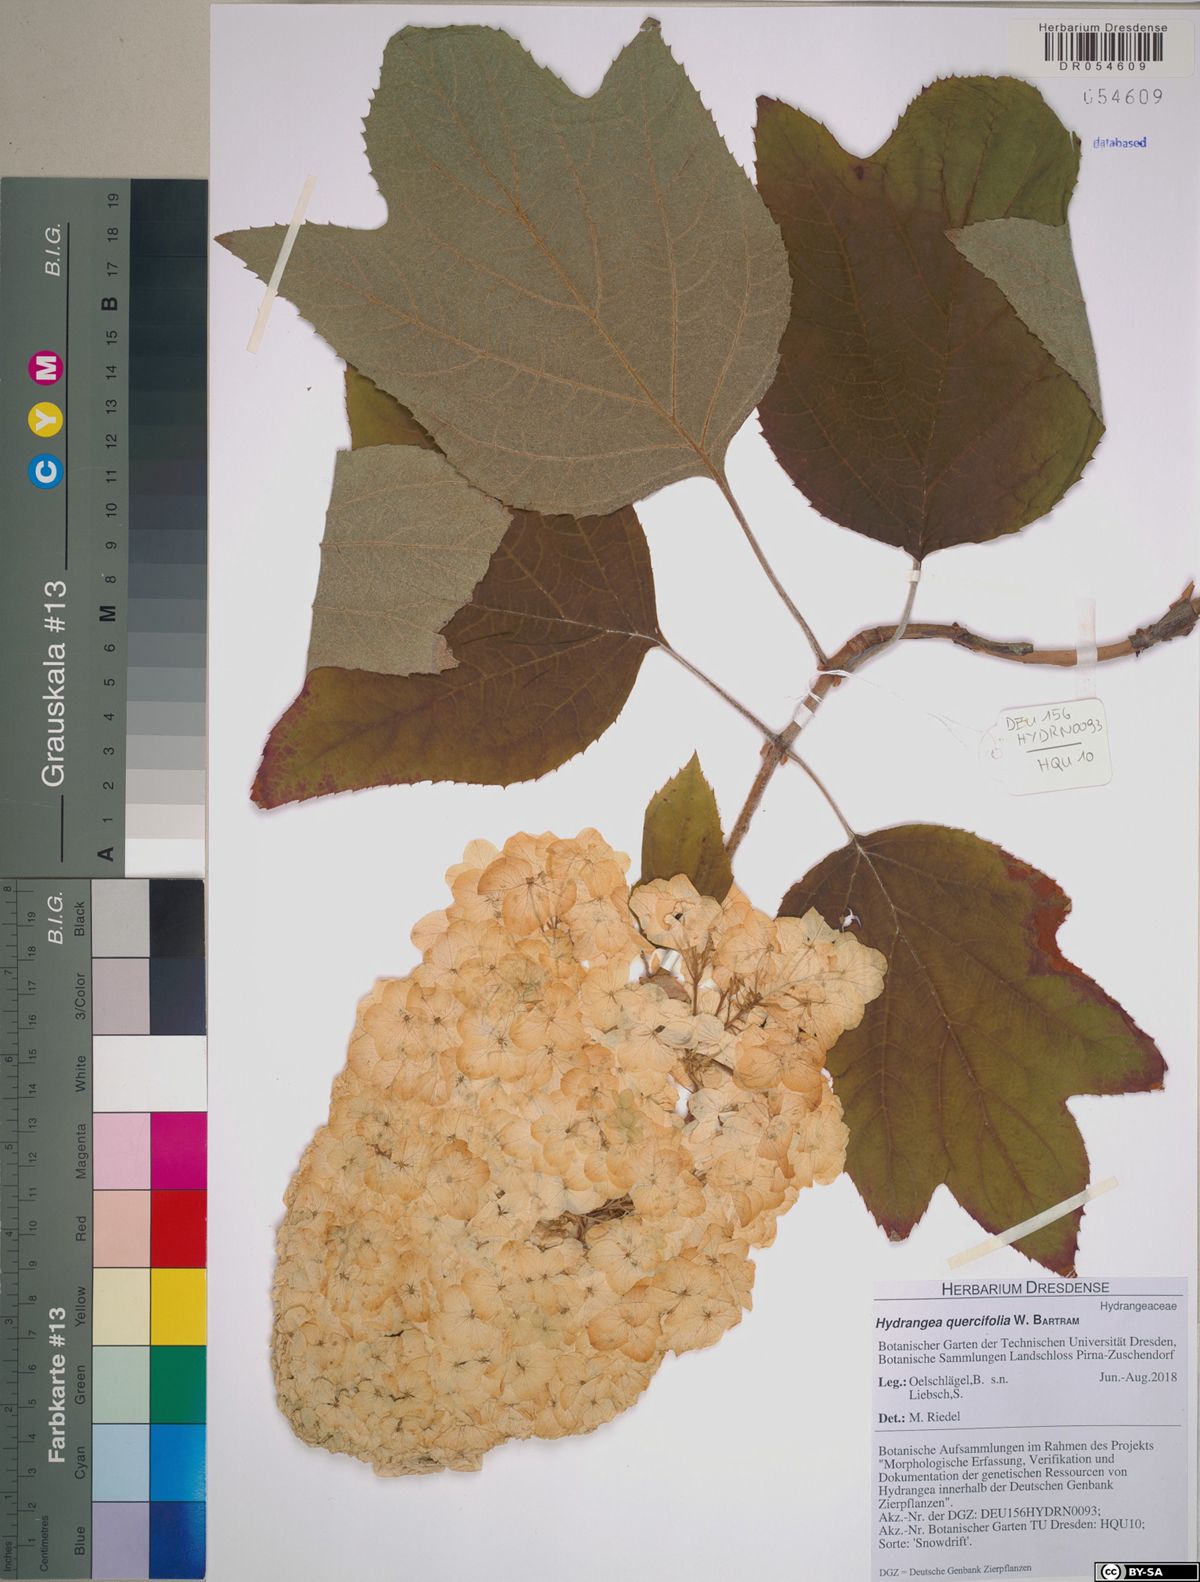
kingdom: Plantae
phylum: Tracheophyta
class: Magnoliopsida
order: Cornales
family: Hydrangeaceae
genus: Hydrangea
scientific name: Hydrangea quercifolia
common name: Oak-leaf hydrangea
